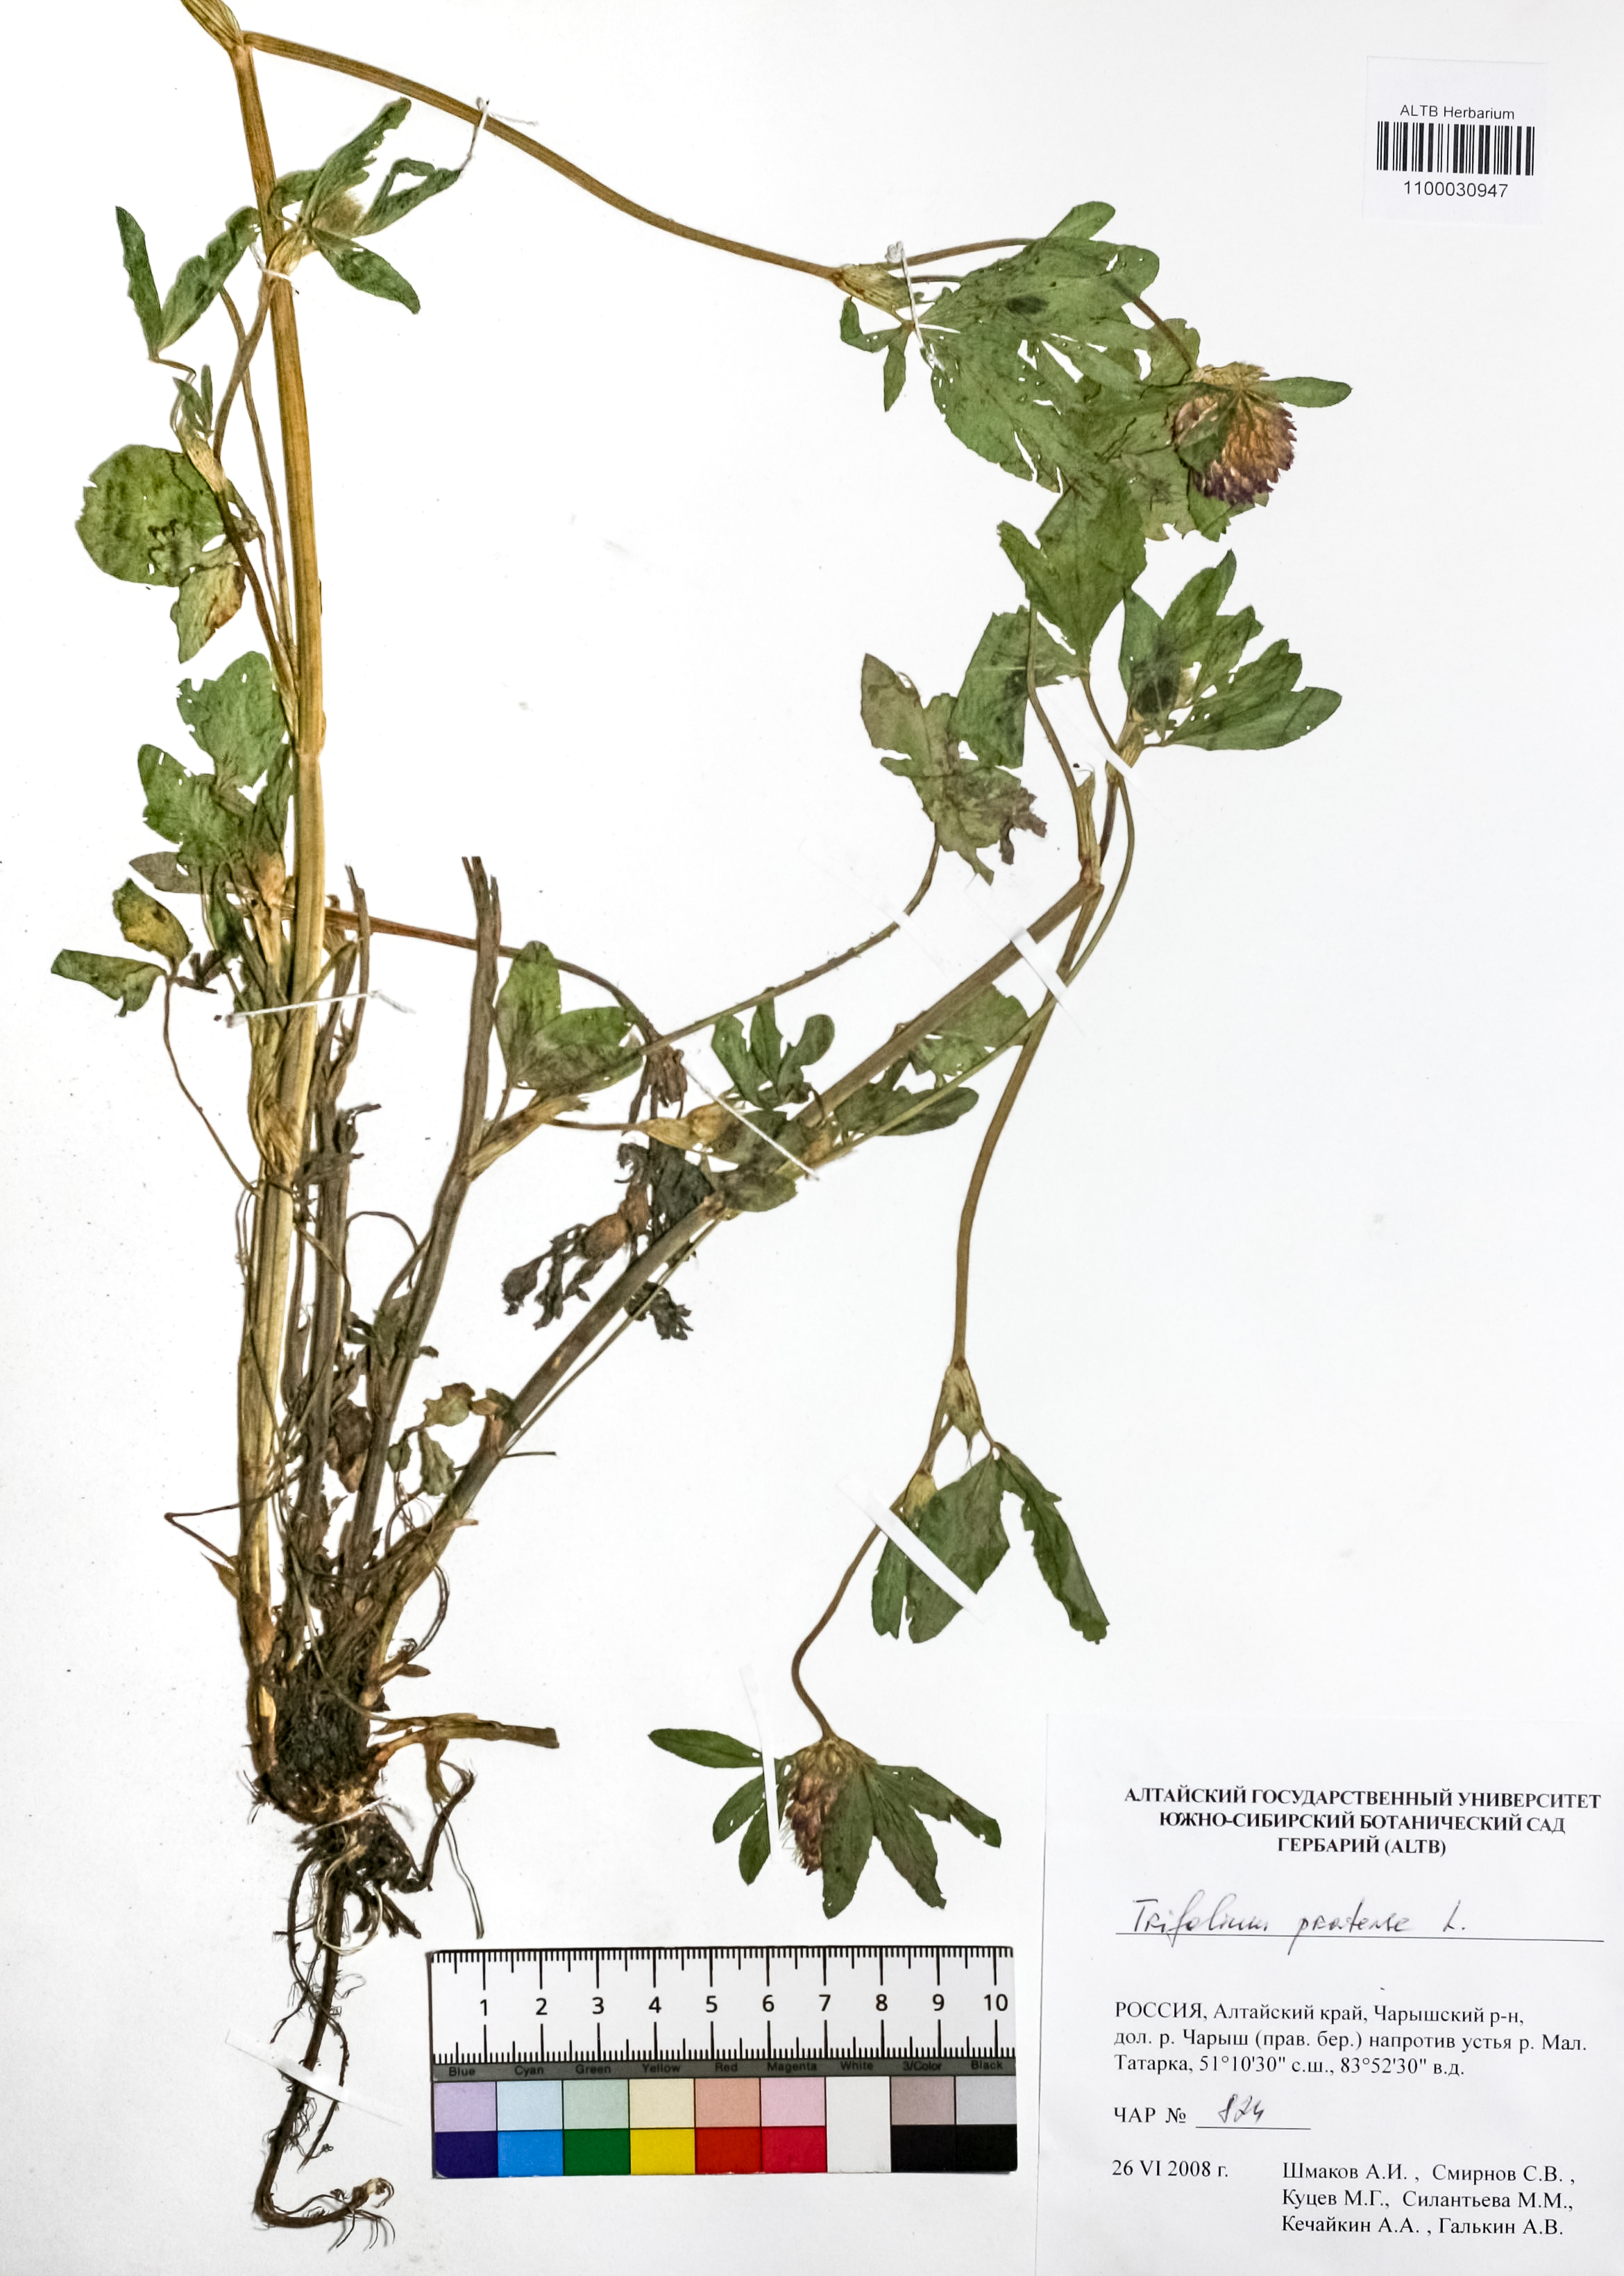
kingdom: Plantae
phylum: Tracheophyta
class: Magnoliopsida
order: Fabales
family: Fabaceae
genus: Trifolium
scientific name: Trifolium pratense
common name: Red clover
